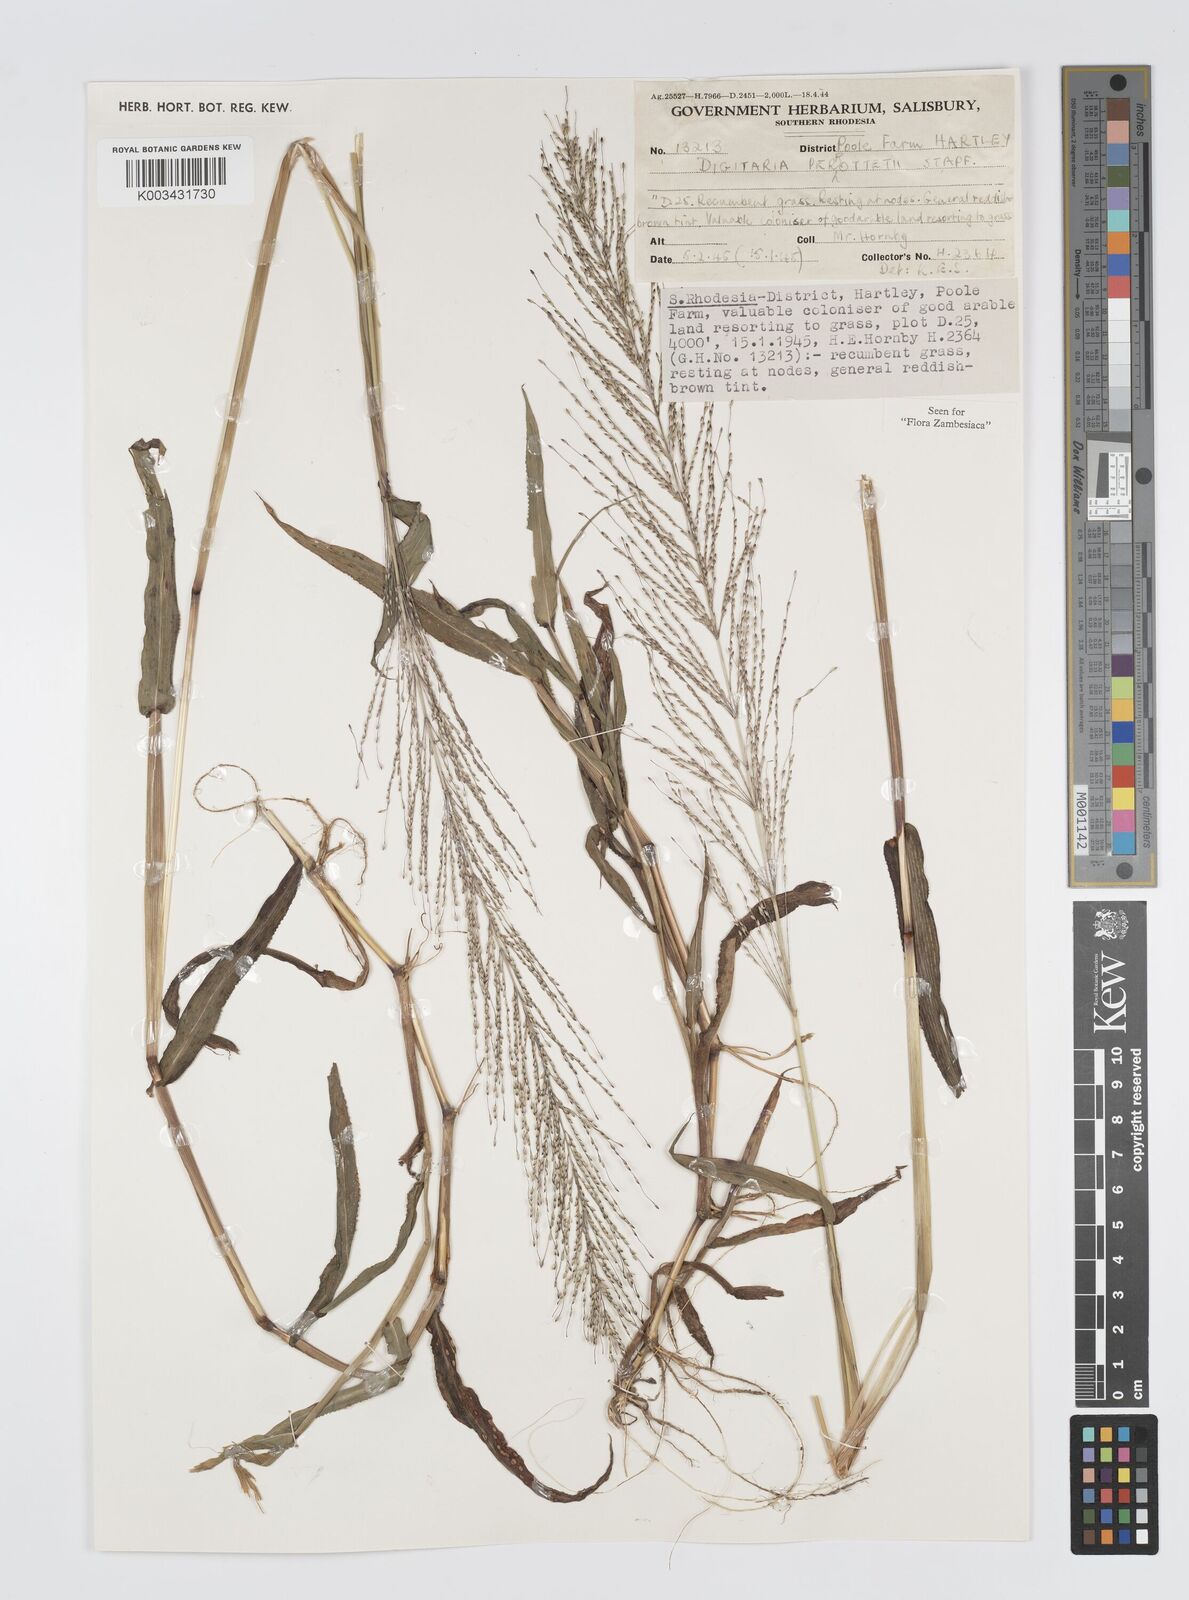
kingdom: Plantae
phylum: Tracheophyta
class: Liliopsida
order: Poales
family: Poaceae
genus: Digitaria
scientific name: Digitaria perrottetii
